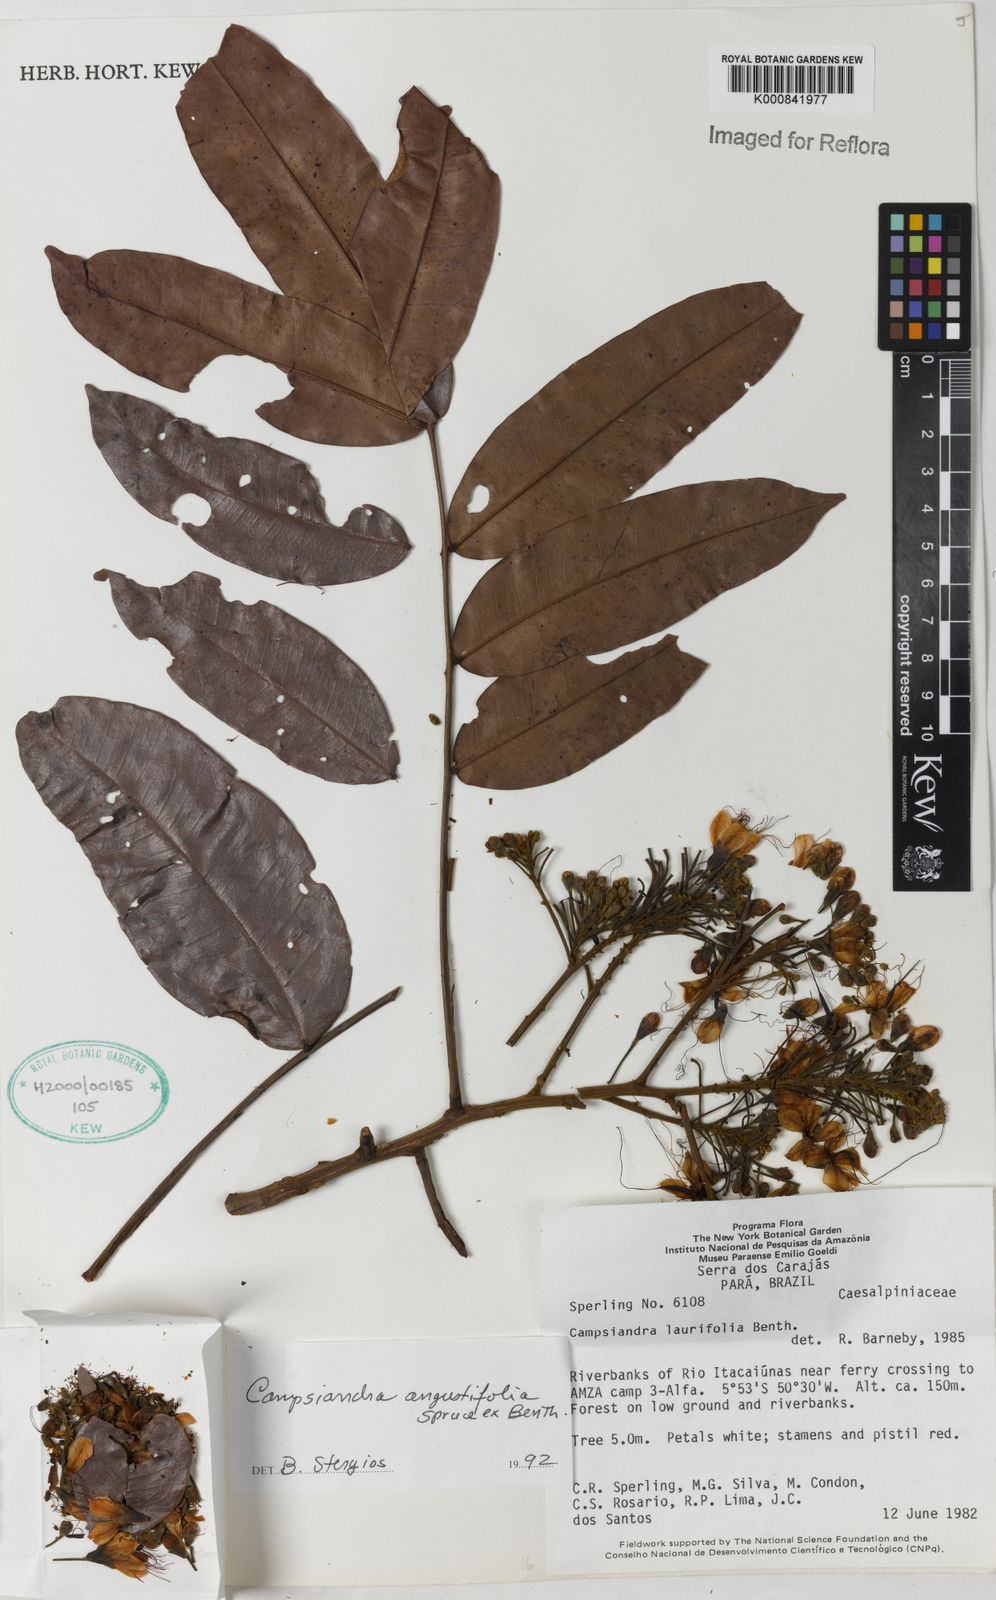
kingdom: Plantae
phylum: Tracheophyta
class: Magnoliopsida
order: Fabales
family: Fabaceae
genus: Campsiandra
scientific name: Campsiandra
